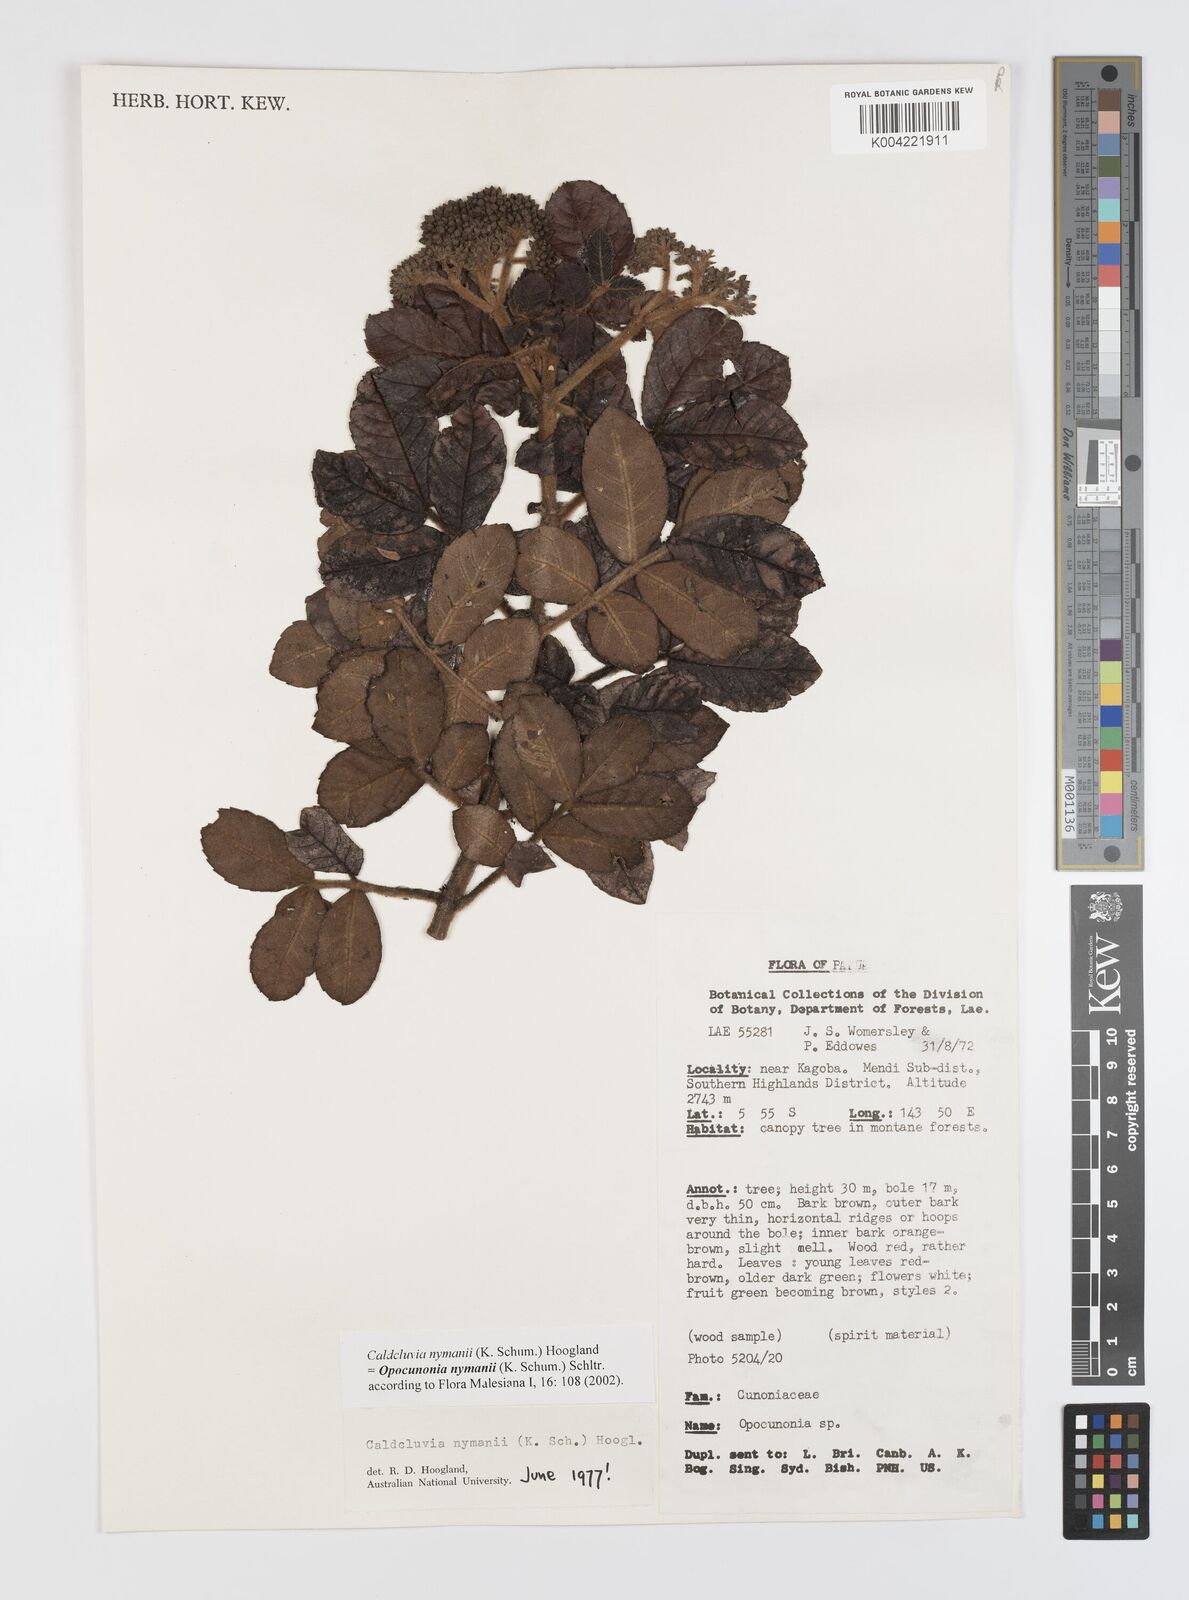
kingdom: Plantae
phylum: Tracheophyta
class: Magnoliopsida
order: Oxalidales
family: Cunoniaceae
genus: Opocunonia
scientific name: Opocunonia nymanii
